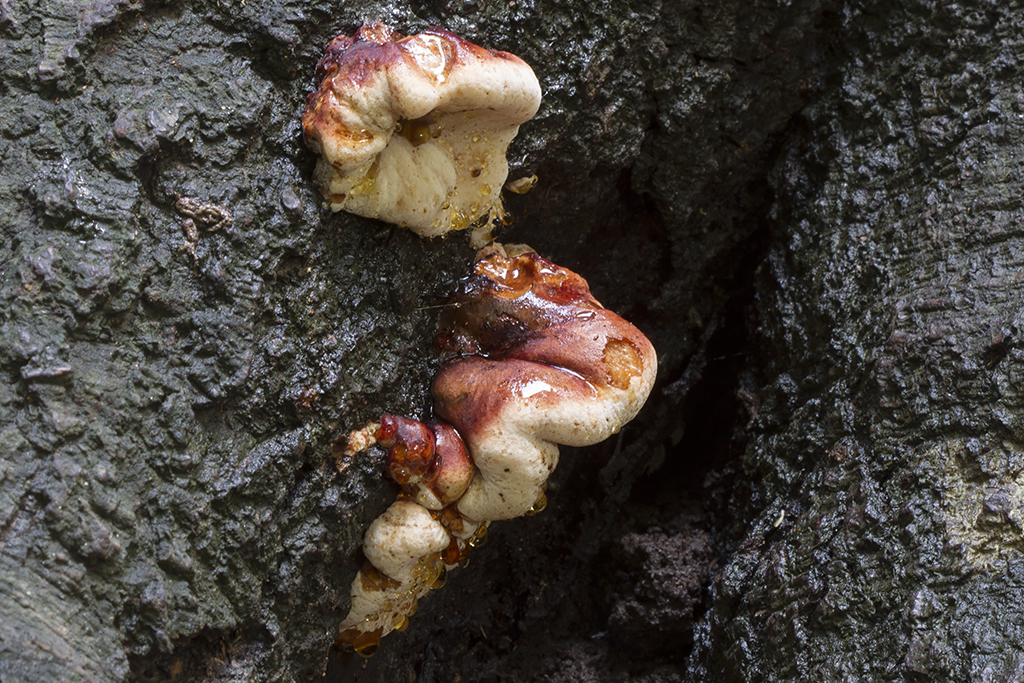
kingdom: Fungi
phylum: Basidiomycota
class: Agaricomycetes
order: Polyporales
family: Ischnodermataceae
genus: Ischnoderma
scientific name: Ischnoderma resinosum
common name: løv-tjæreporesvamp
